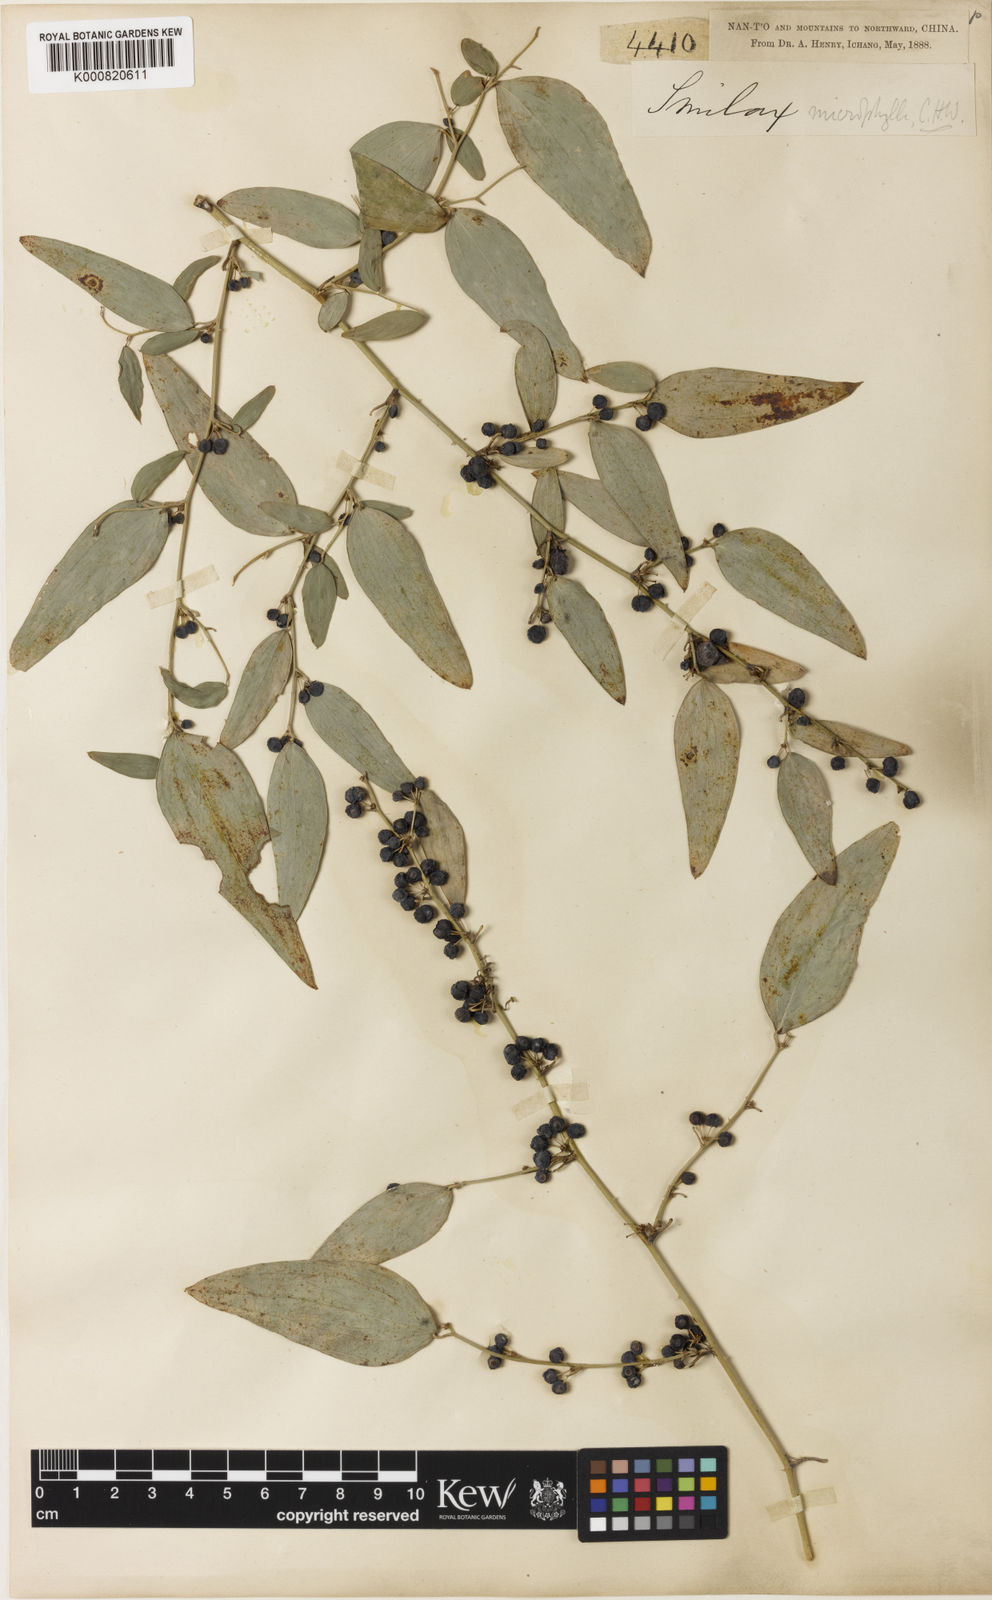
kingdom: Plantae
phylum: Tracheophyta
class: Liliopsida
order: Liliales
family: Smilacaceae
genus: Smilax
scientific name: Smilax microphylla
